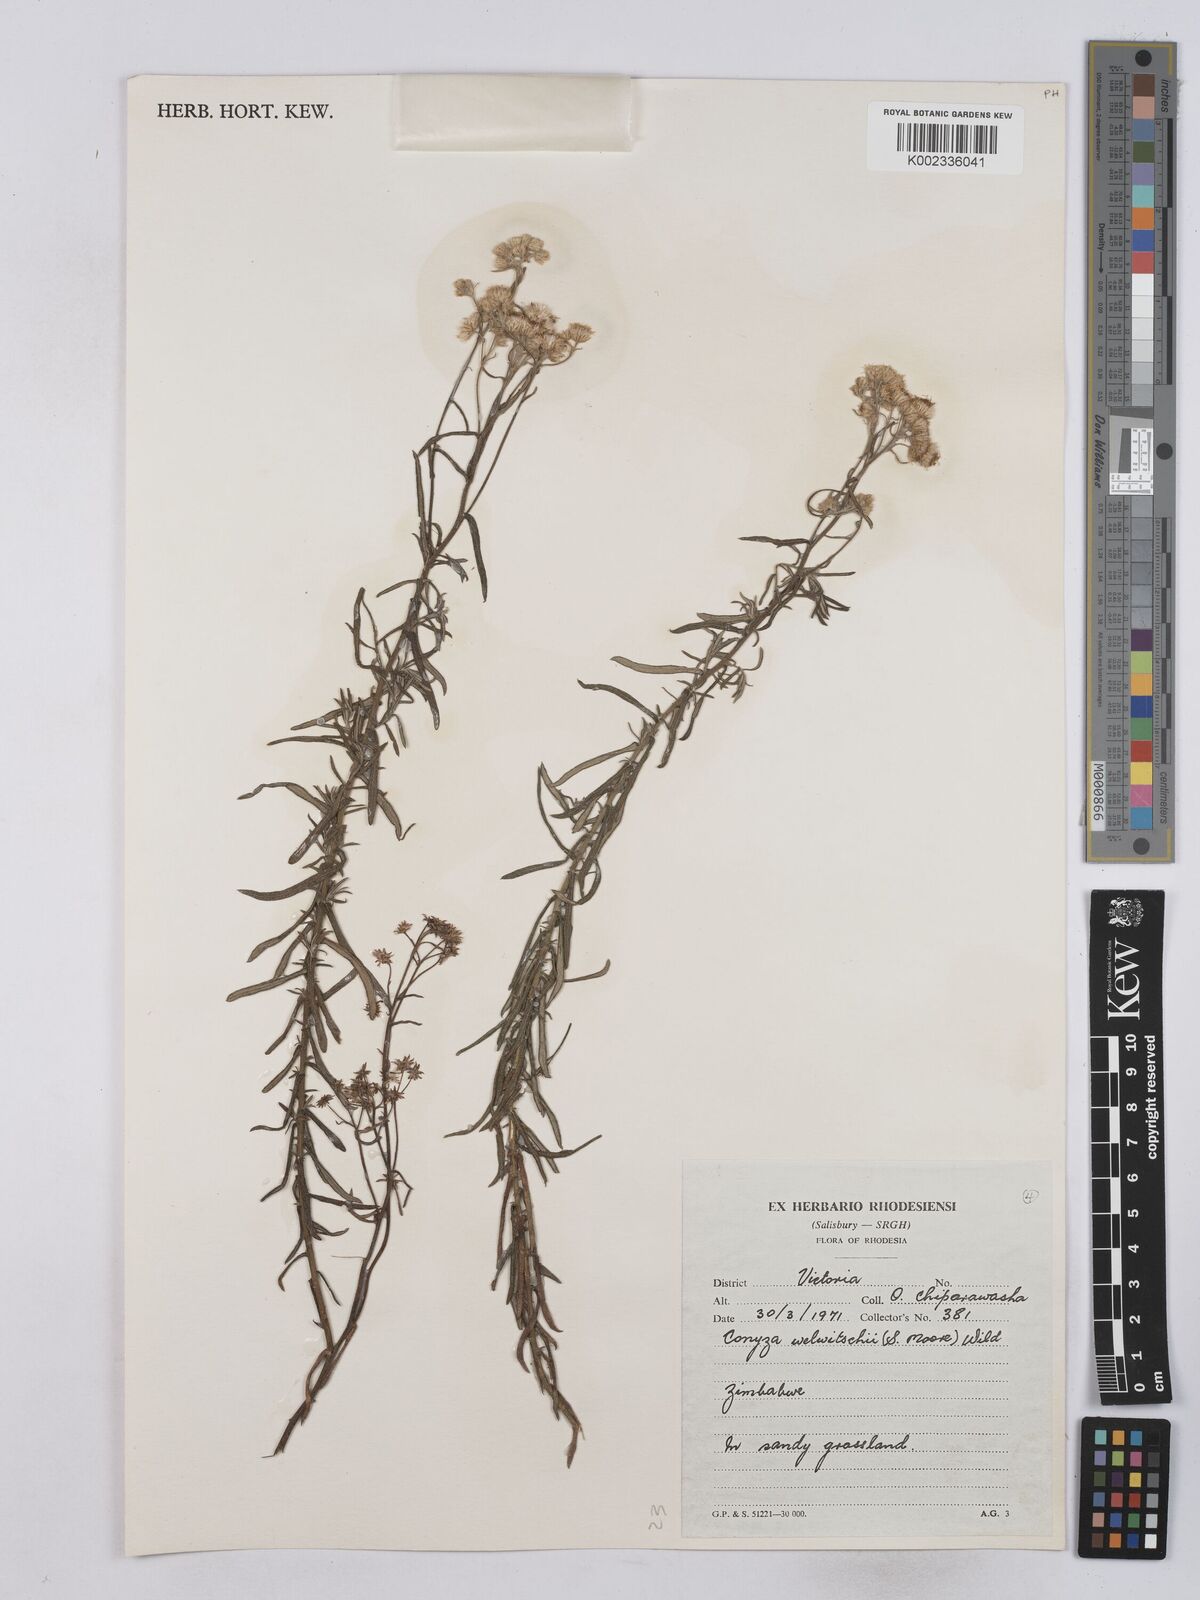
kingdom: Plantae
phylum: Tracheophyta
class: Magnoliopsida
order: Asterales
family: Asteraceae
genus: Nidorella
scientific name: Nidorella welwitschii
